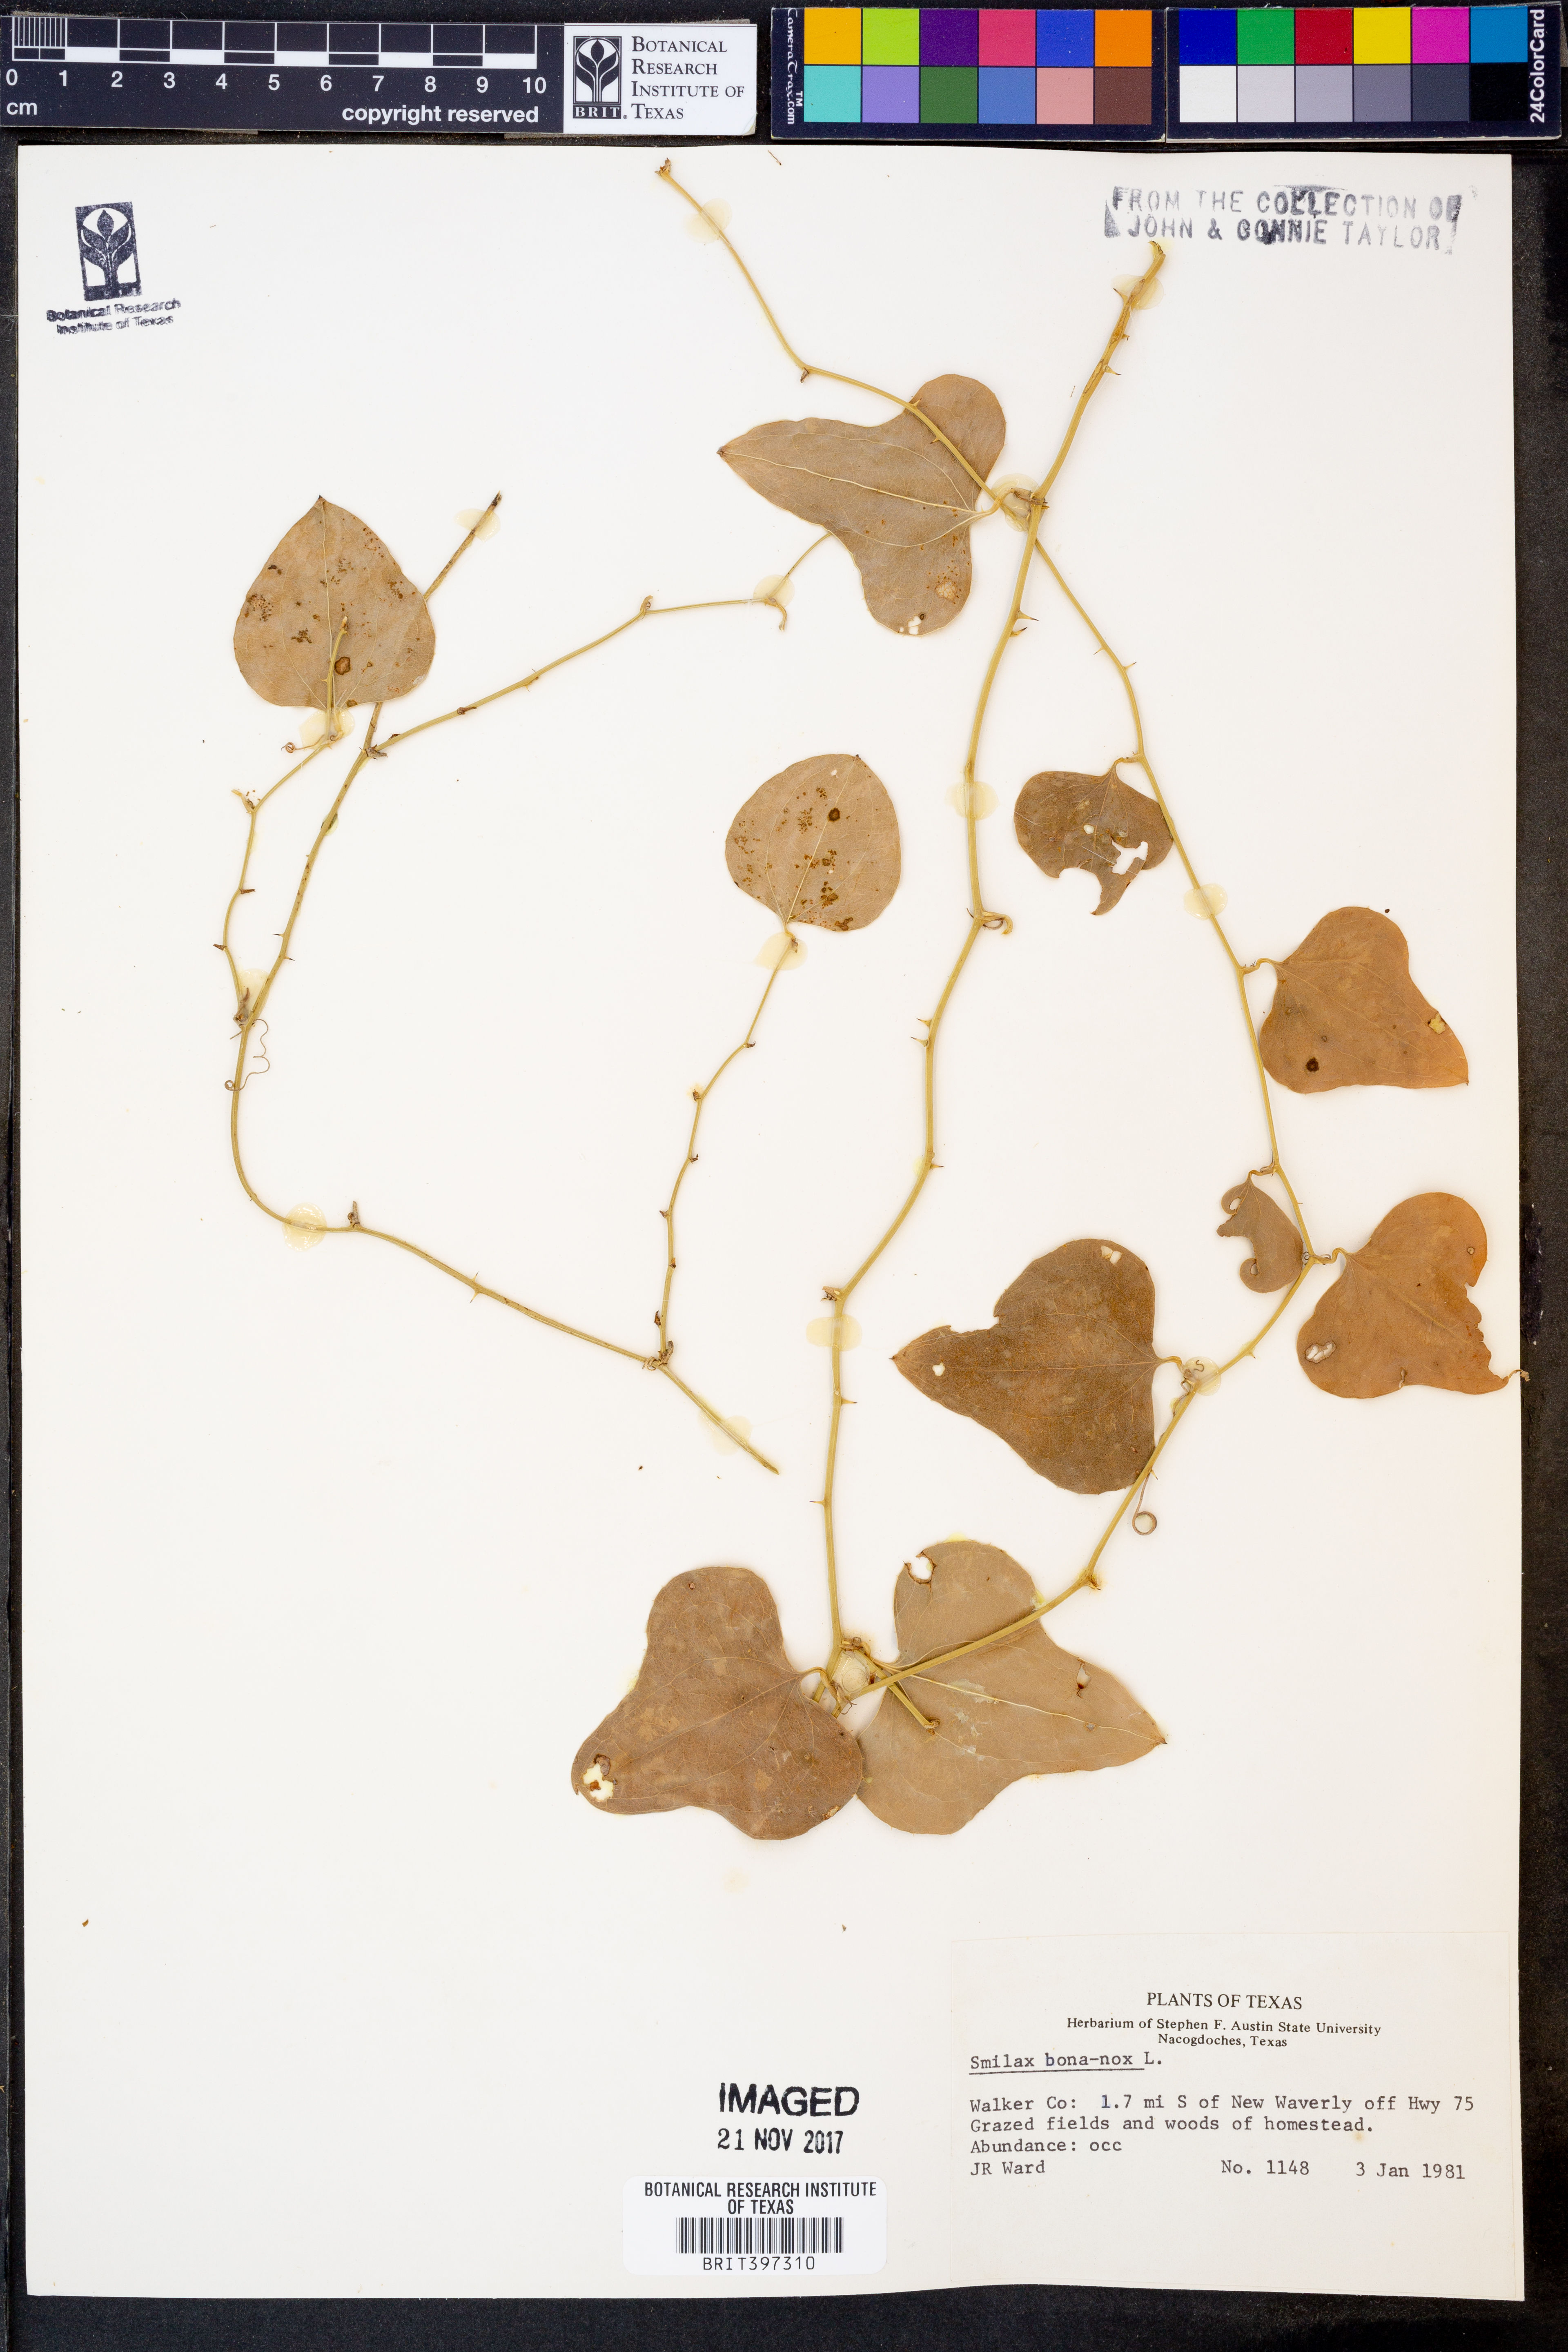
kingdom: Plantae
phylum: Tracheophyta
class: Liliopsida
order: Liliales
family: Smilacaceae
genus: Smilax
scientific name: Smilax bona-nox
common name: Catbrier
